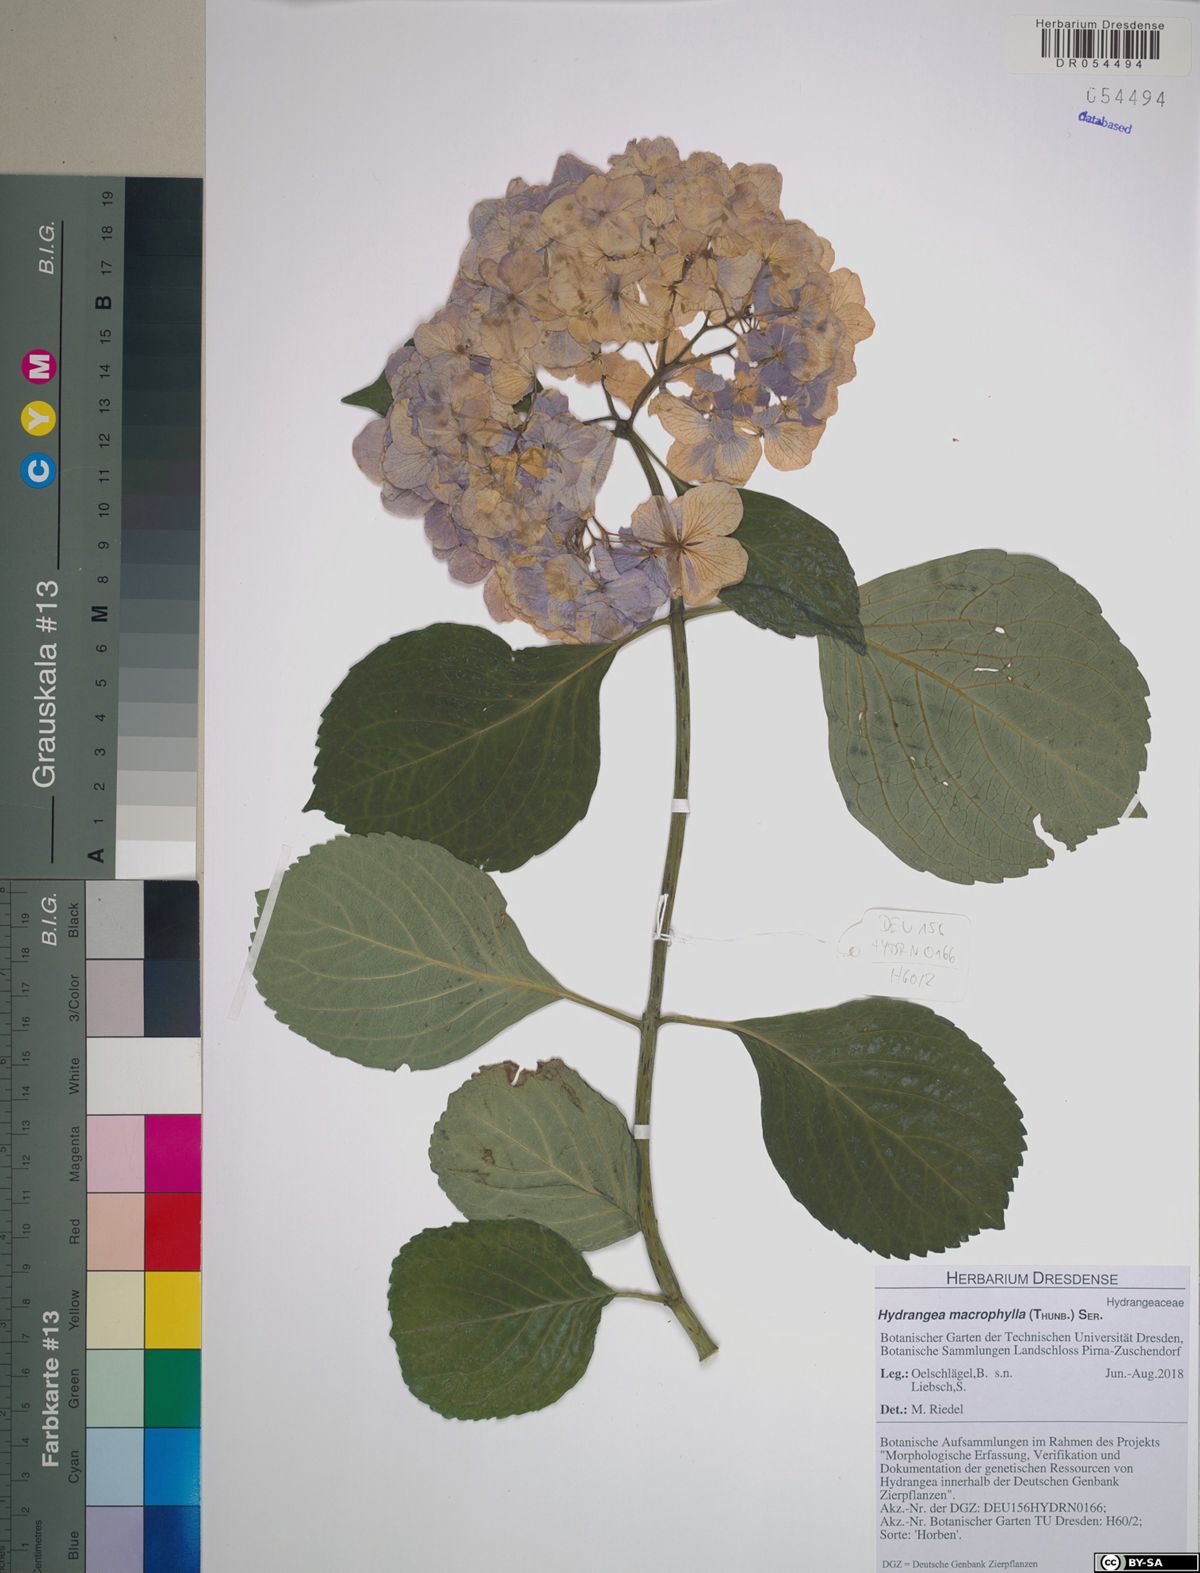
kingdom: Plantae
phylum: Tracheophyta
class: Magnoliopsida
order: Cornales
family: Hydrangeaceae
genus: Hydrangea
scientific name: Hydrangea macrophylla
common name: Hydrangea
